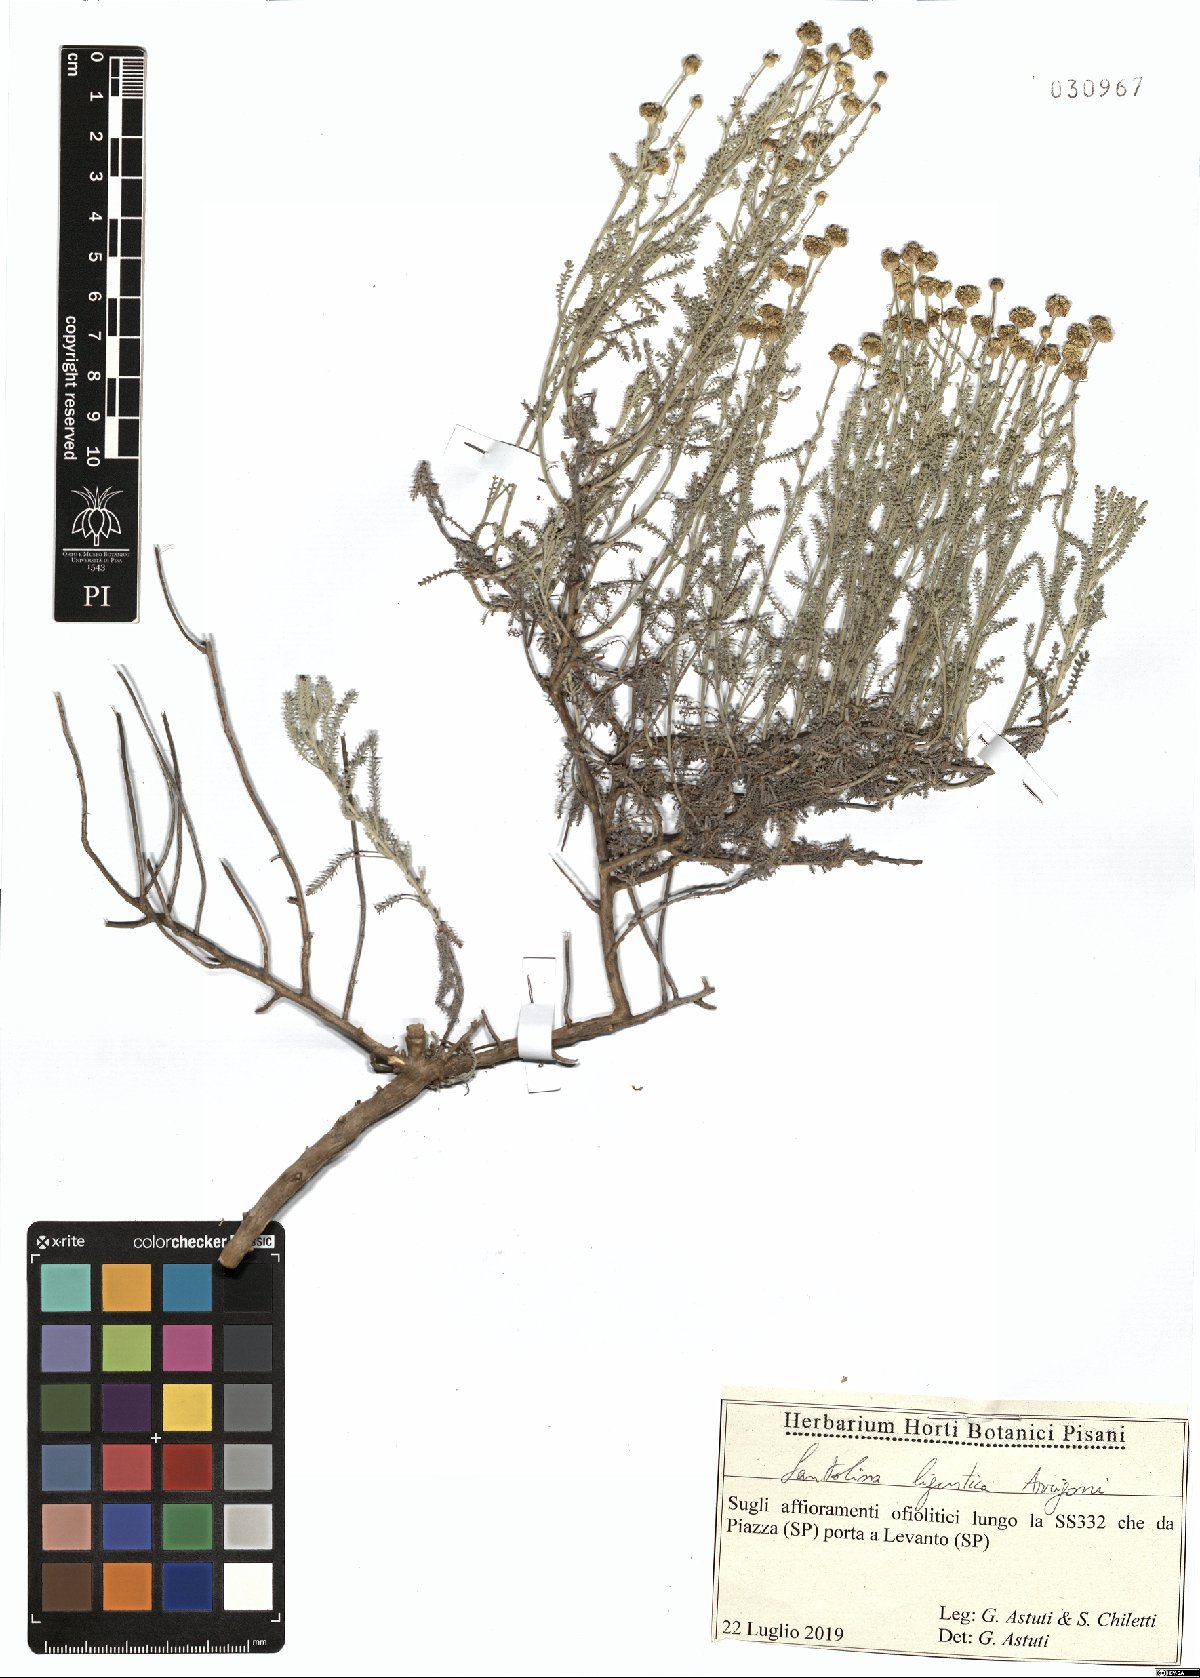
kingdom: Plantae
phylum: Tracheophyta
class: Magnoliopsida
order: Asterales
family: Asteraceae
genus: Santolina
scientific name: Santolina ligustica
